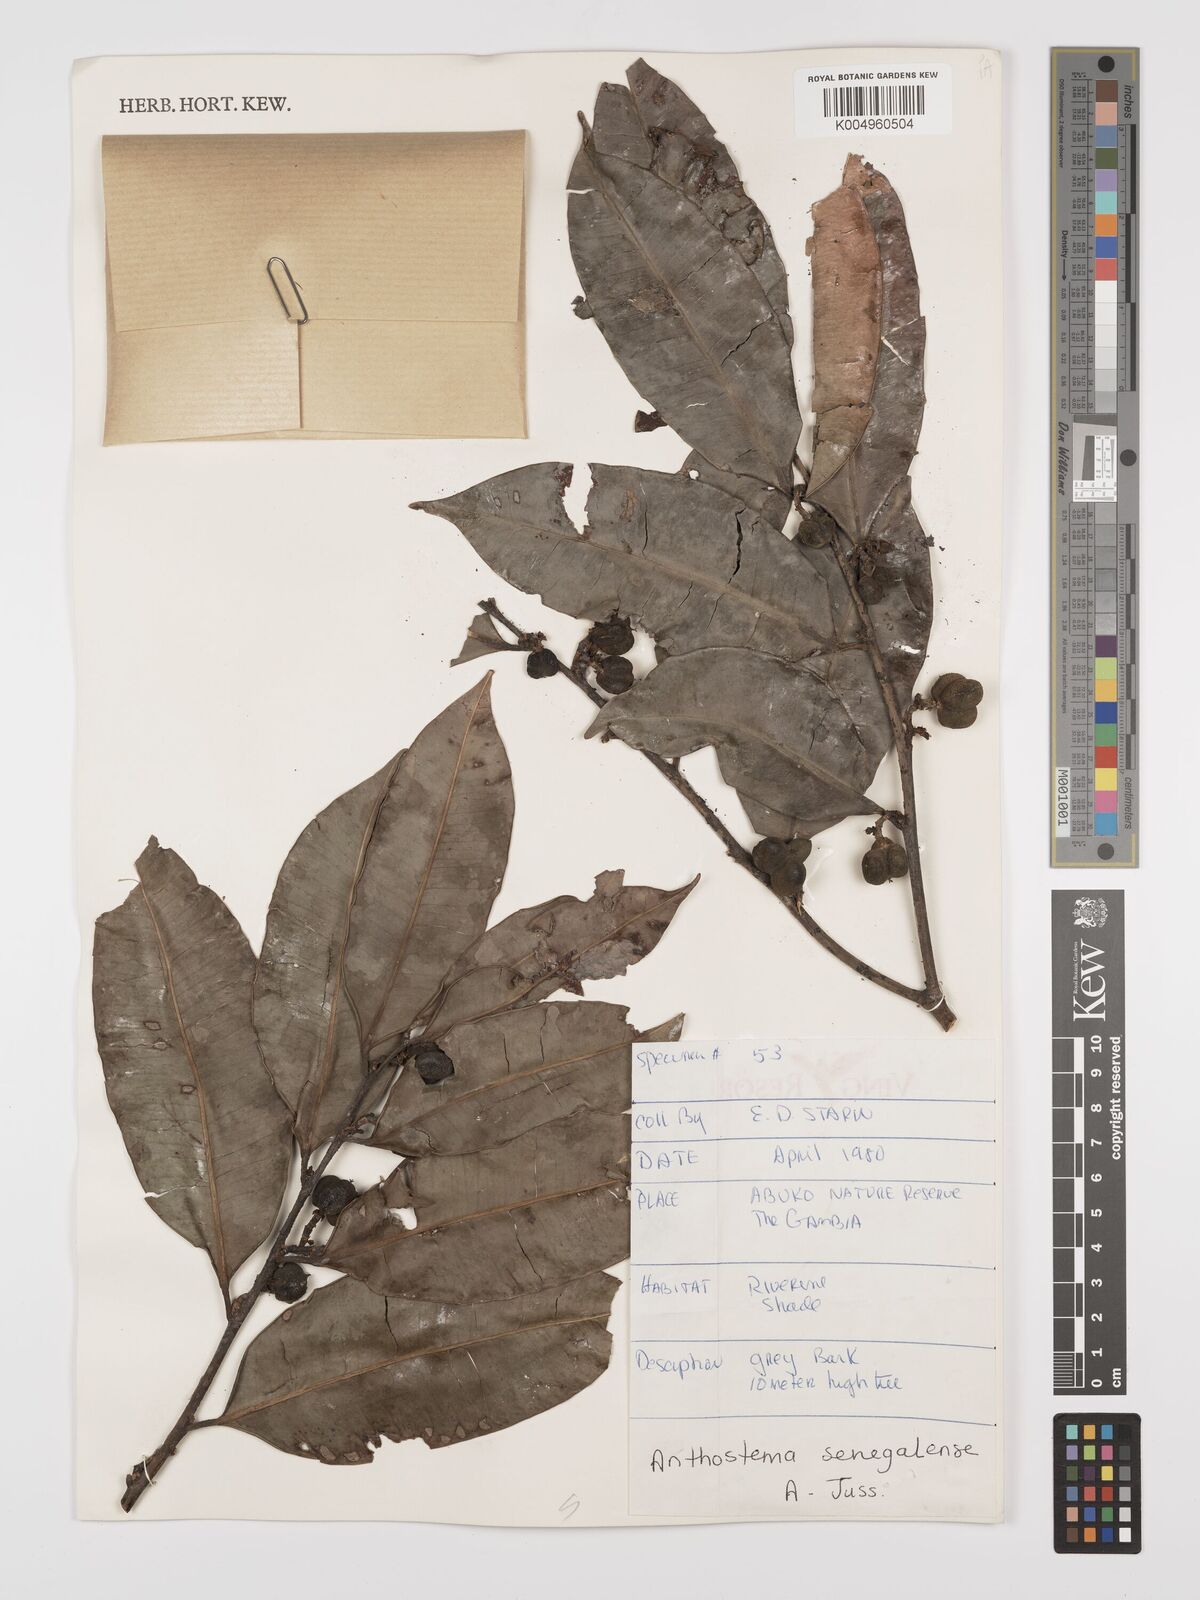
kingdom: Plantae
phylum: Tracheophyta
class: Magnoliopsida
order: Malpighiales
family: Euphorbiaceae
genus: Anthostema
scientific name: Anthostema senegalense
